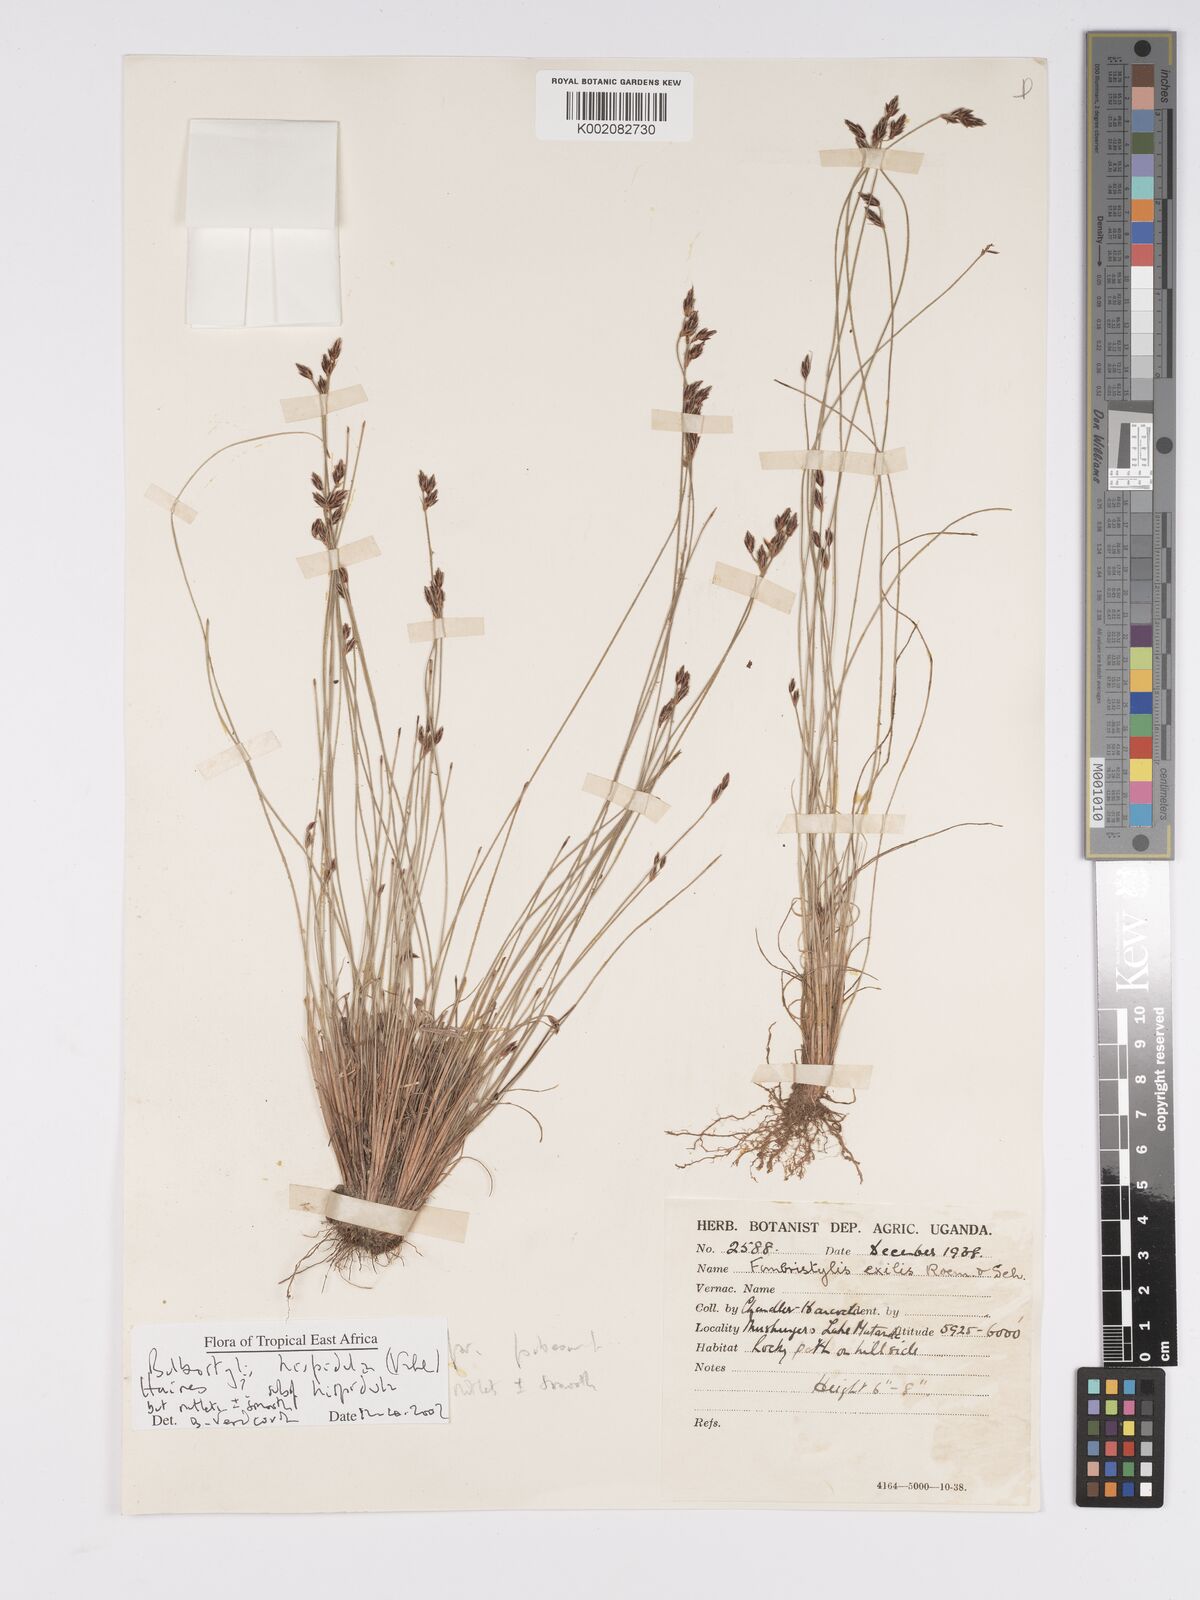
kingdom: Plantae
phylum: Tracheophyta
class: Liliopsida
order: Poales
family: Cyperaceae
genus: Bulbostylis
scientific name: Bulbostylis
